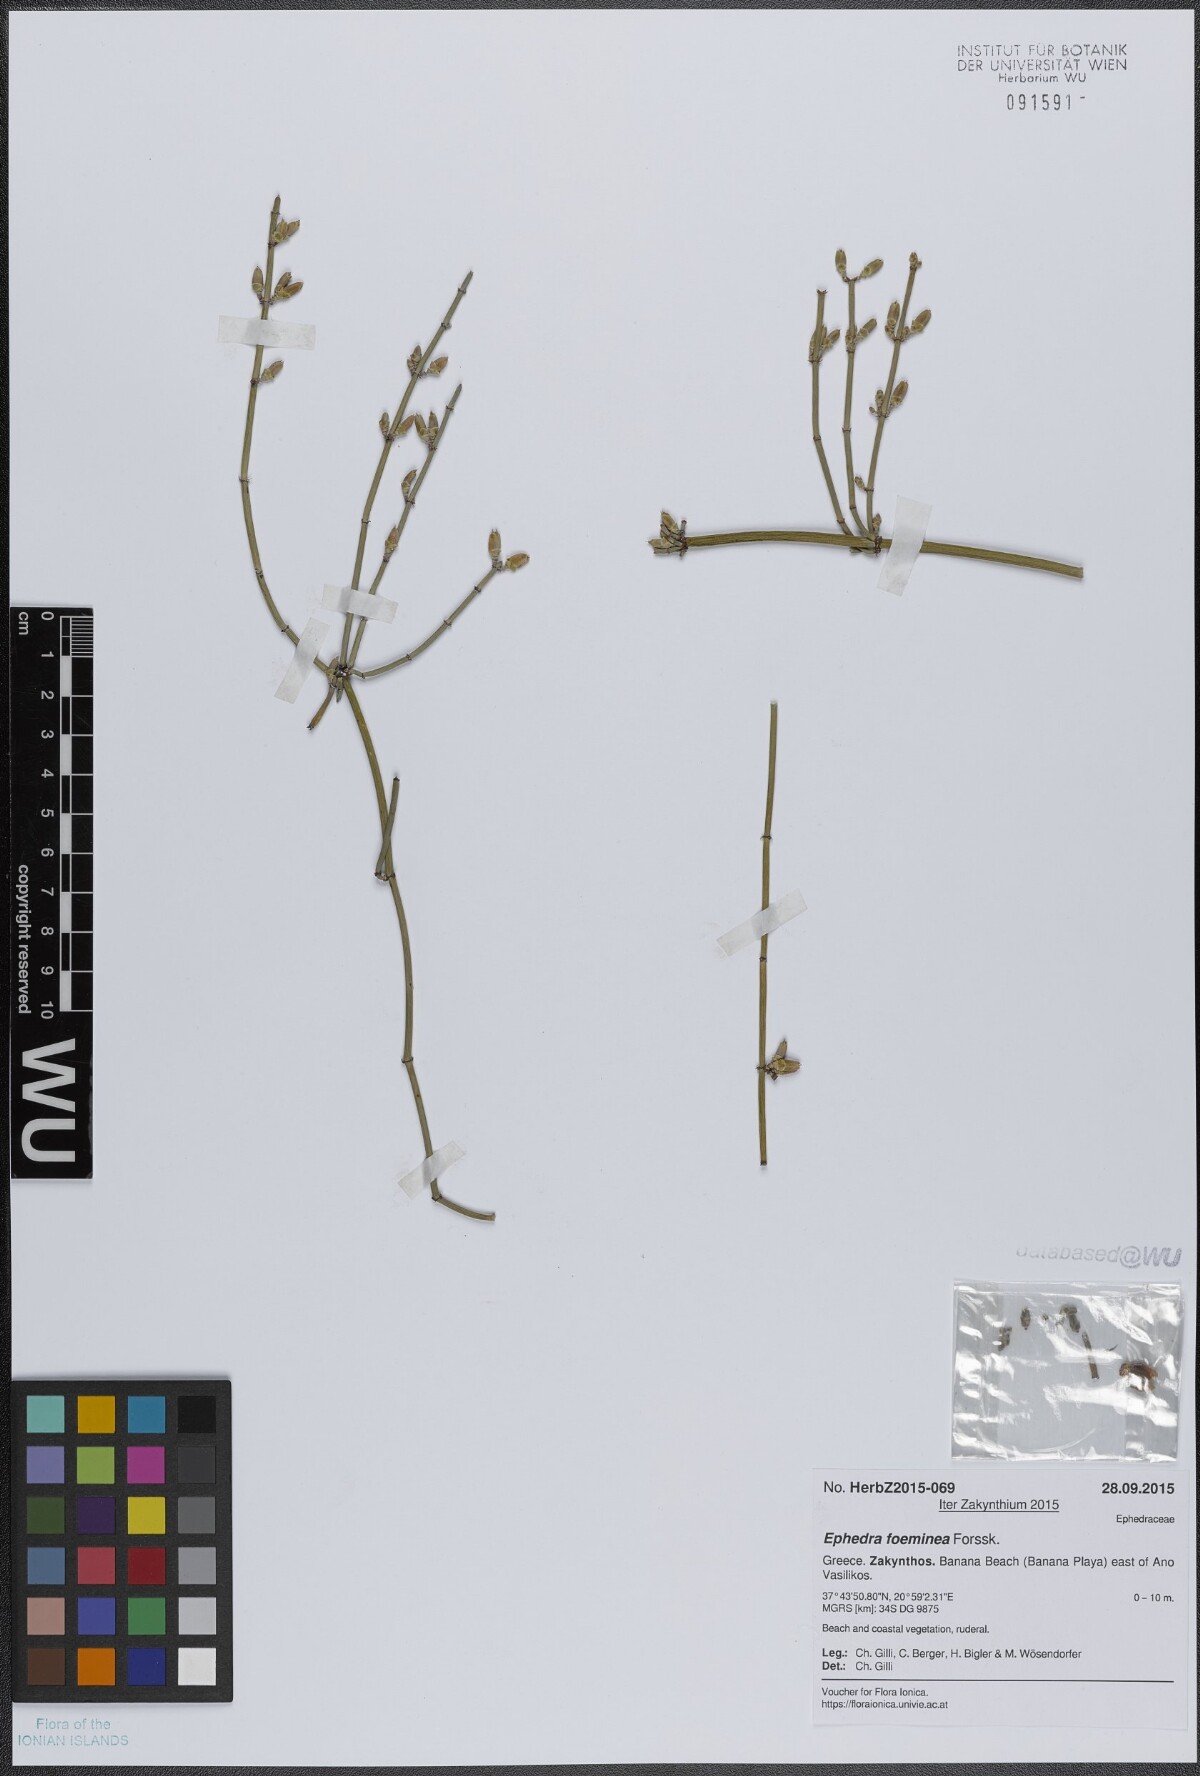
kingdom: Plantae
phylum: Tracheophyta
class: Gnetopsida
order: Ephedrales
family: Ephedraceae
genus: Ephedra
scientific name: Ephedra foeminea
